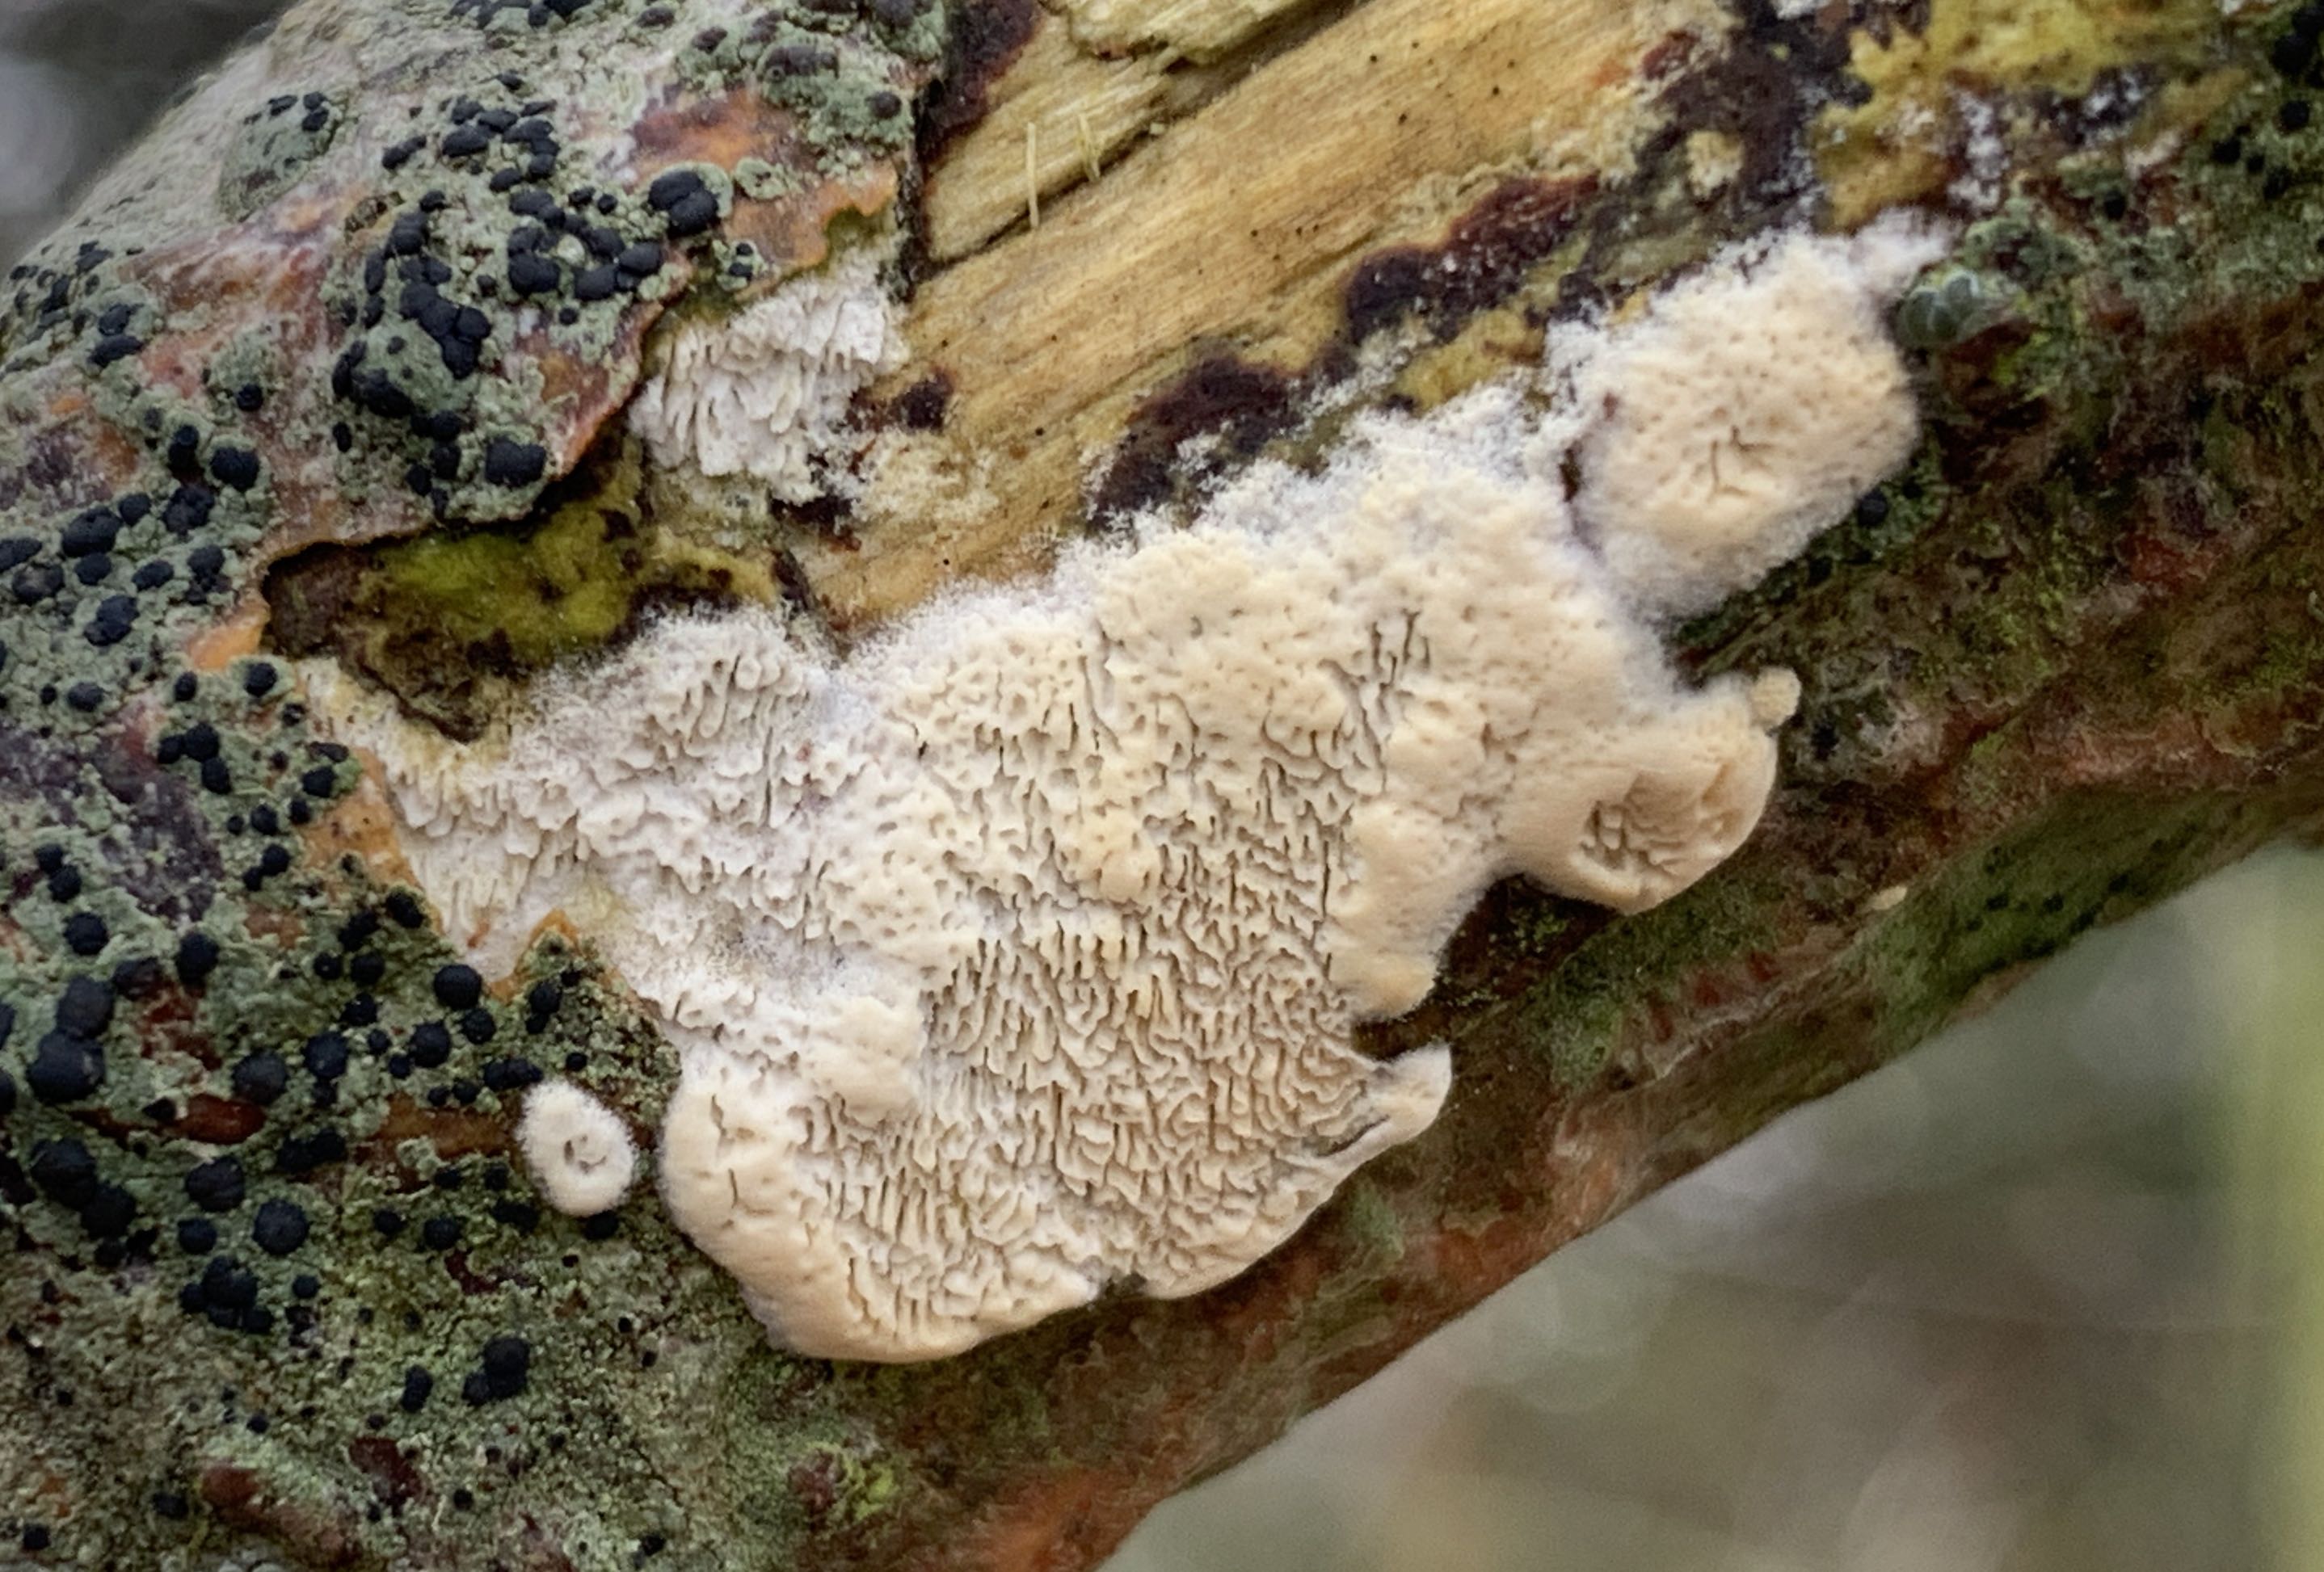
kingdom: Fungi
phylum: Basidiomycota
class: Agaricomycetes
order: Polyporales
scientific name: Polyporales
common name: poresvampordenen
